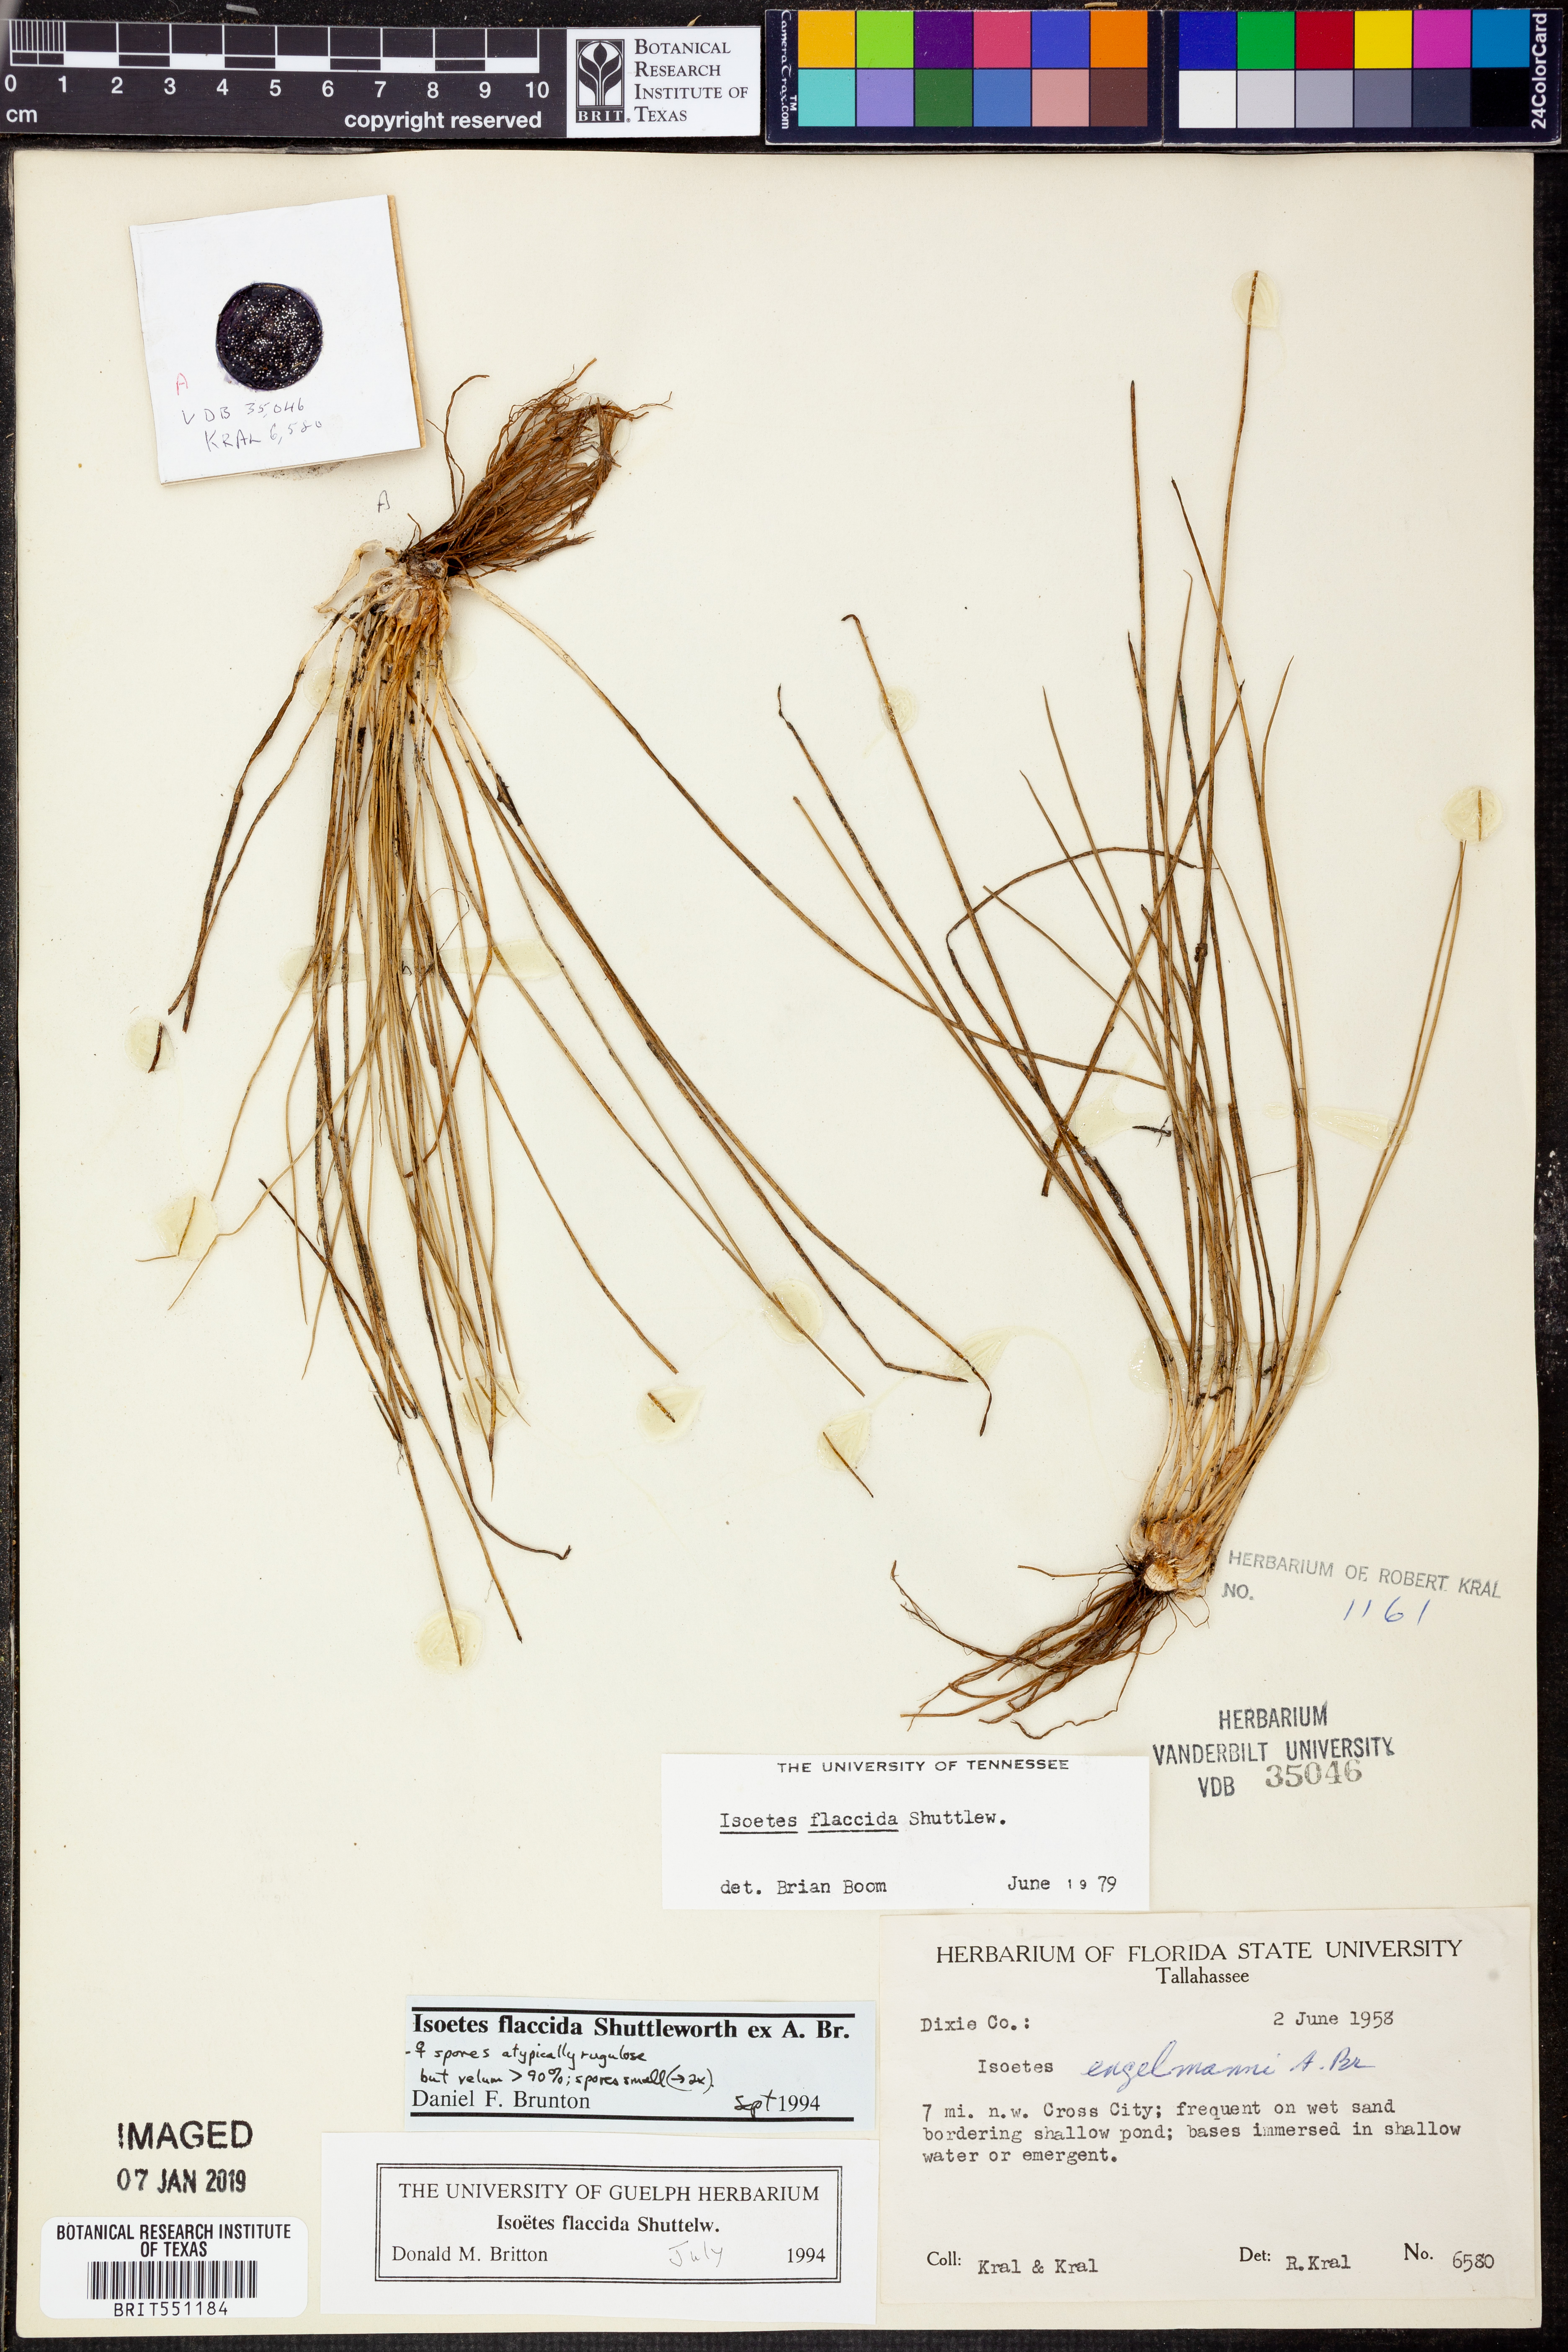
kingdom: Plantae
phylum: Tracheophyta
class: Lycopodiopsida
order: Isoetales
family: Isoetaceae
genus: Isoetes
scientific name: Isoetes flaccida
